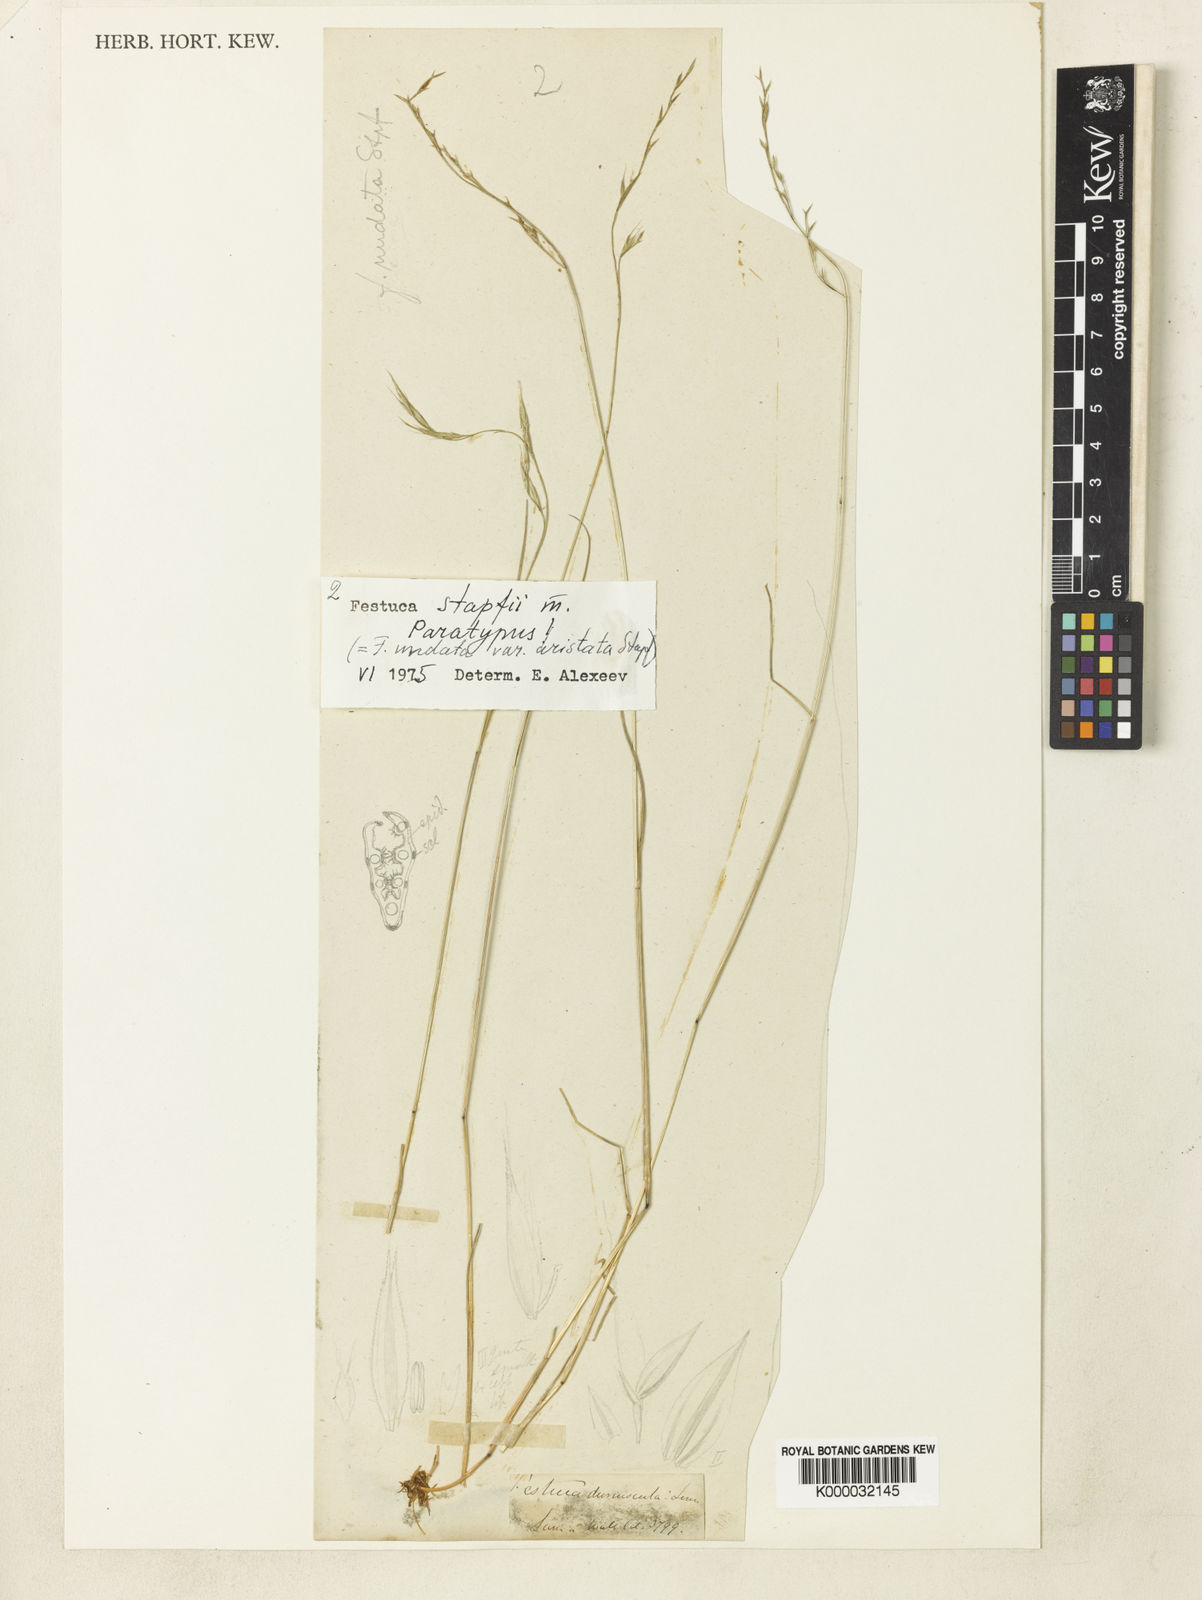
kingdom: Plantae
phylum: Tracheophyta
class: Liliopsida
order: Poales
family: Poaceae
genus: Festuca
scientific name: Festuca undata
